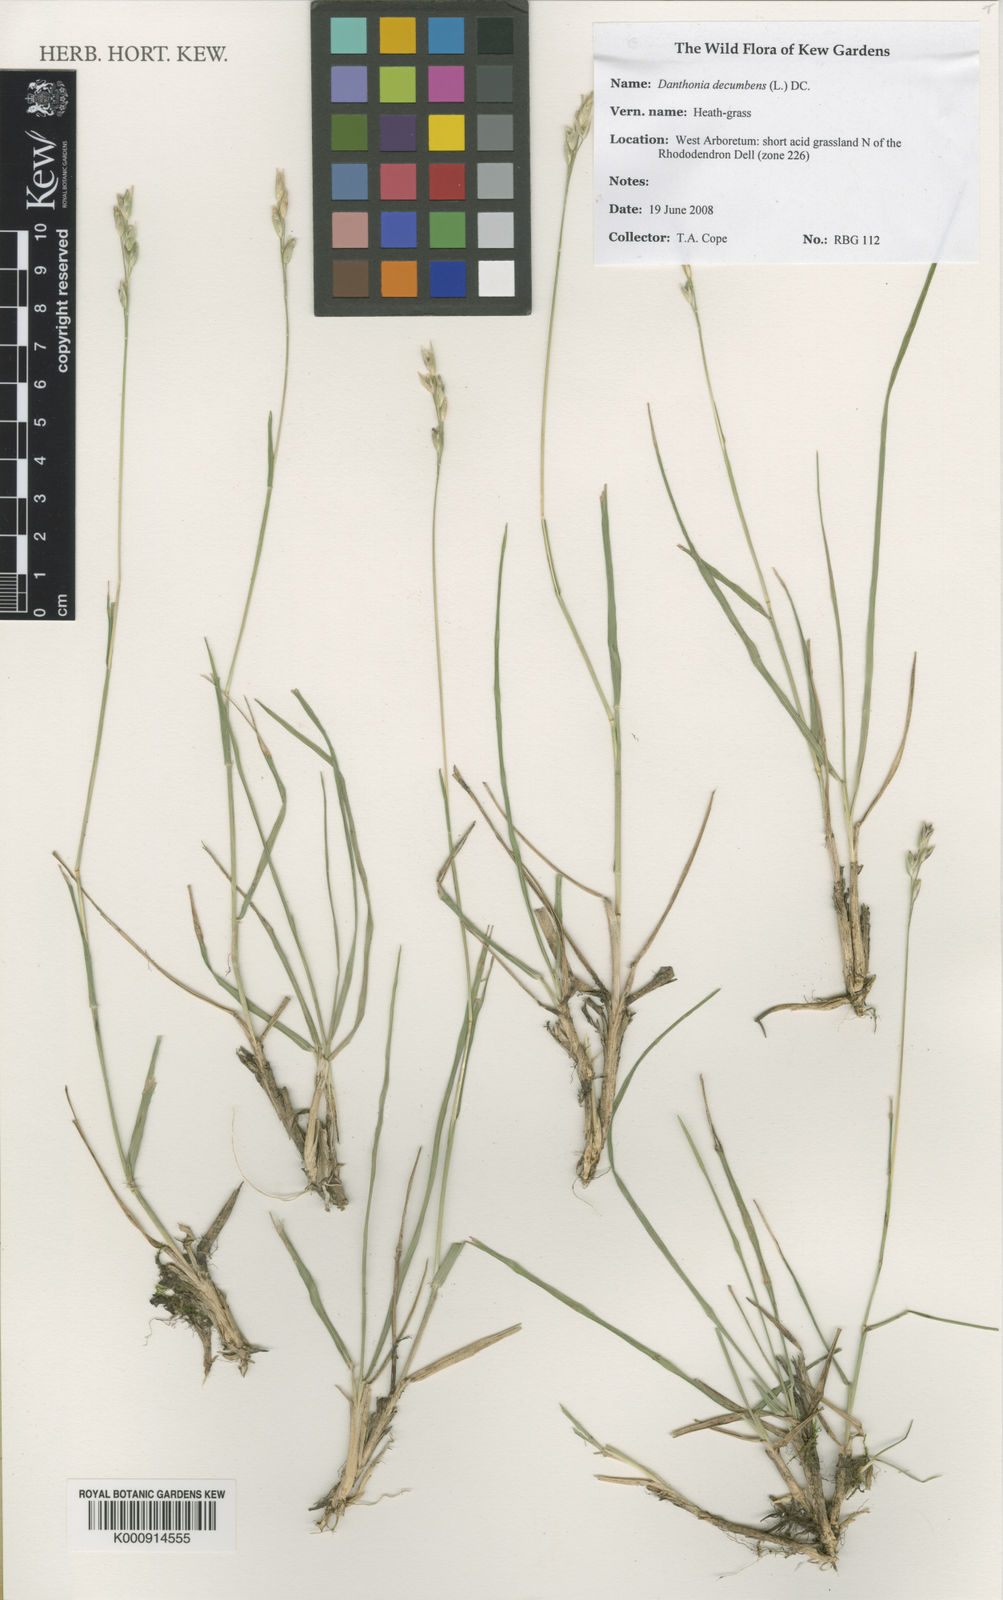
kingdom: Plantae
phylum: Tracheophyta
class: Liliopsida
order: Poales
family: Poaceae
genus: Danthonia
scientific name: Danthonia decumbens
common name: Common heathgrass
